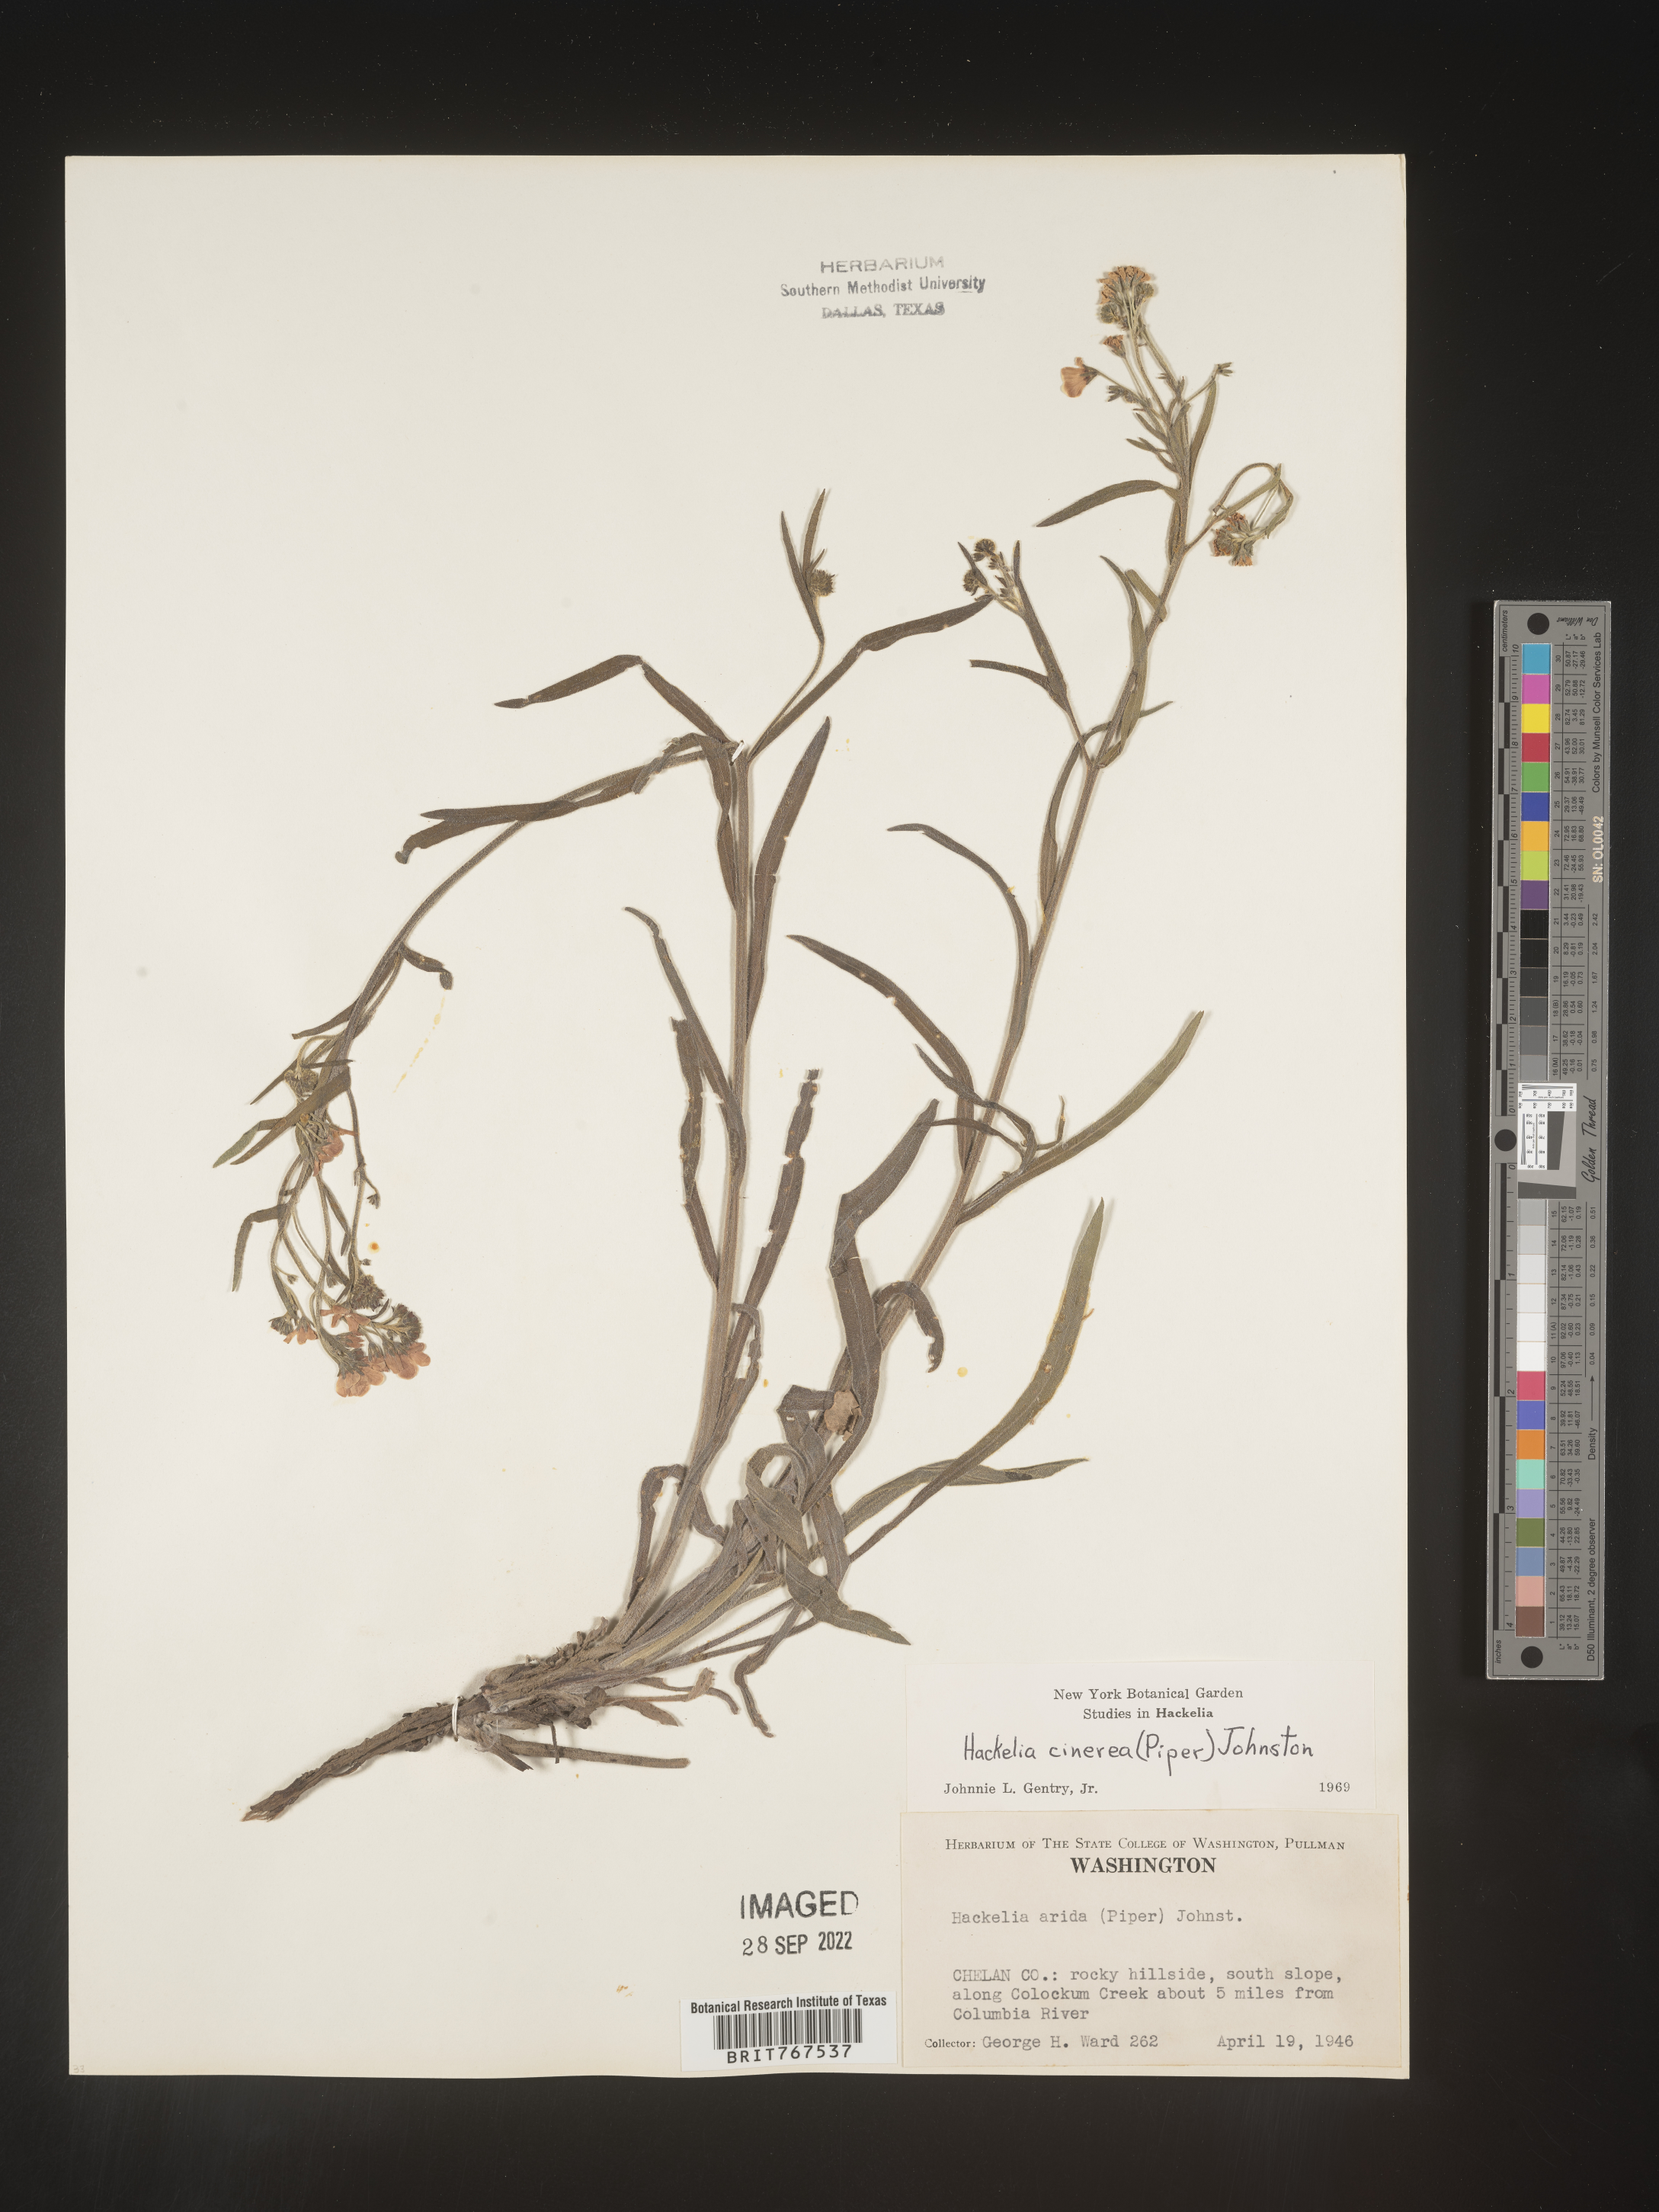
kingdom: Plantae
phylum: Tracheophyta
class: Magnoliopsida
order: Boraginales
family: Boraginaceae
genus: Hackelia
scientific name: Hackelia
